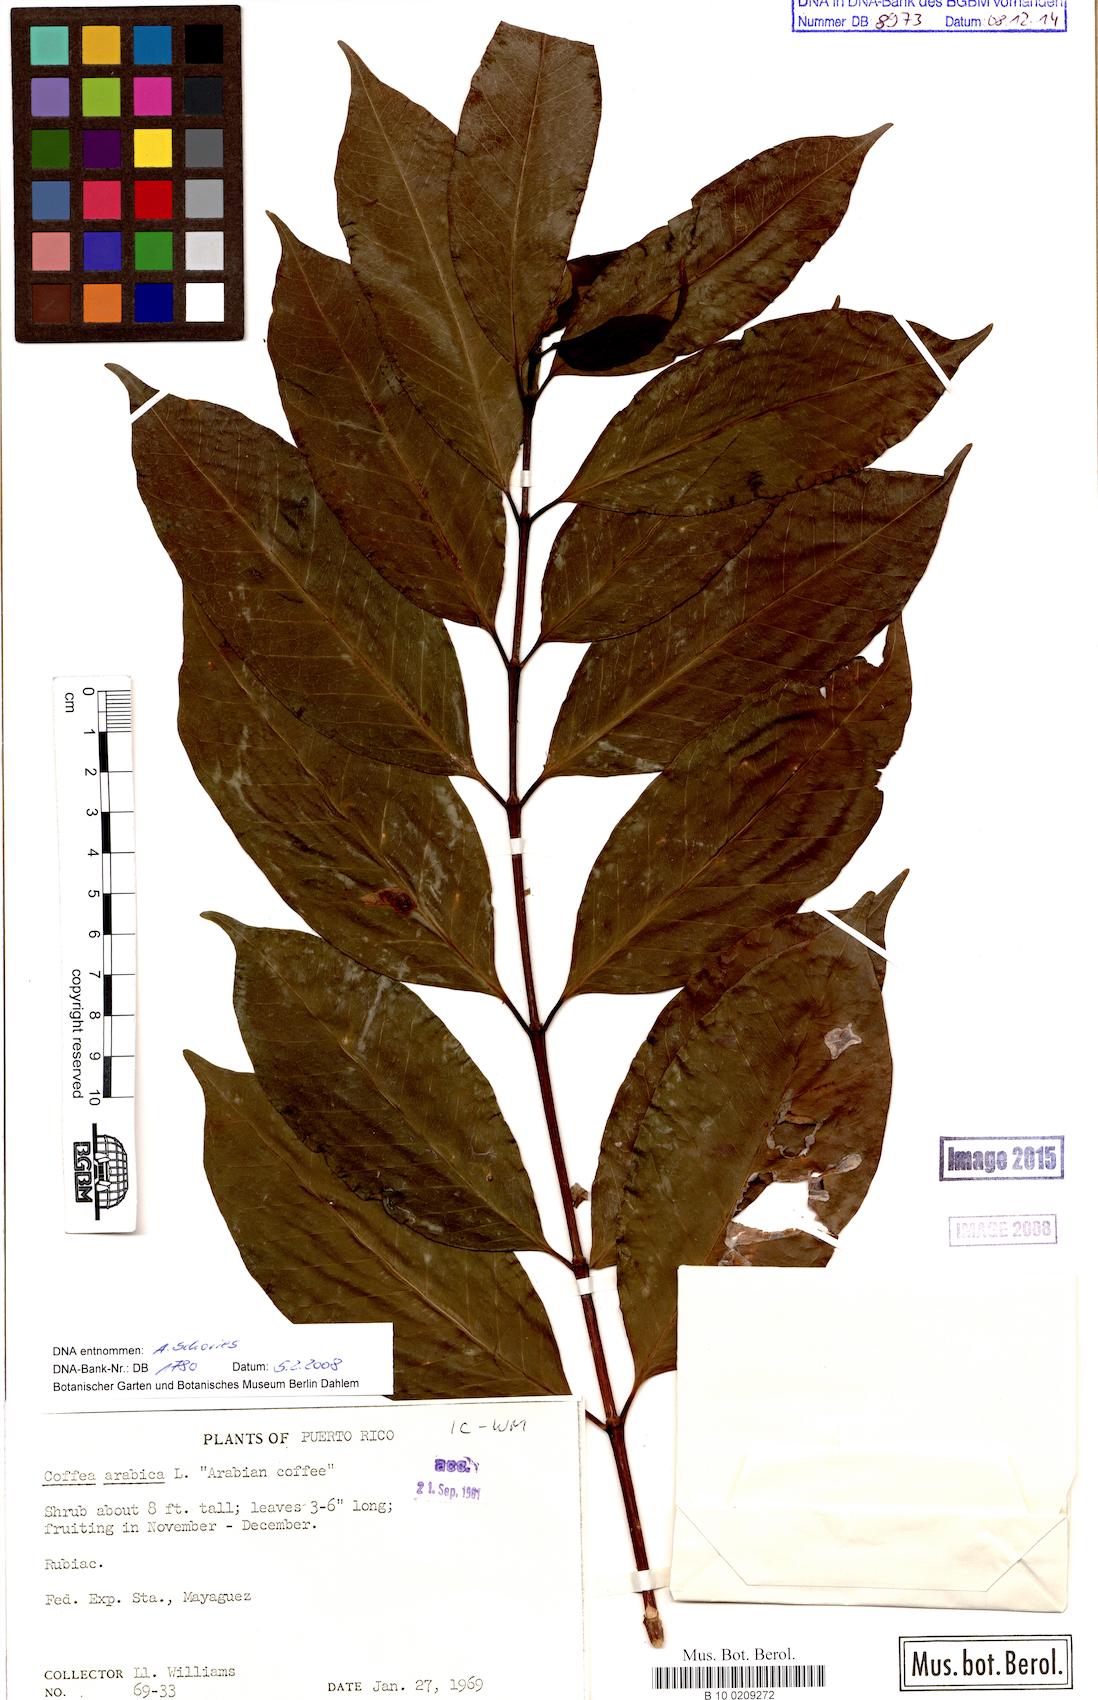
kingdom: Plantae
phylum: Tracheophyta
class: Magnoliopsida
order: Gentianales
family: Rubiaceae
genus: Coffea
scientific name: Coffea arabica
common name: Coffee
